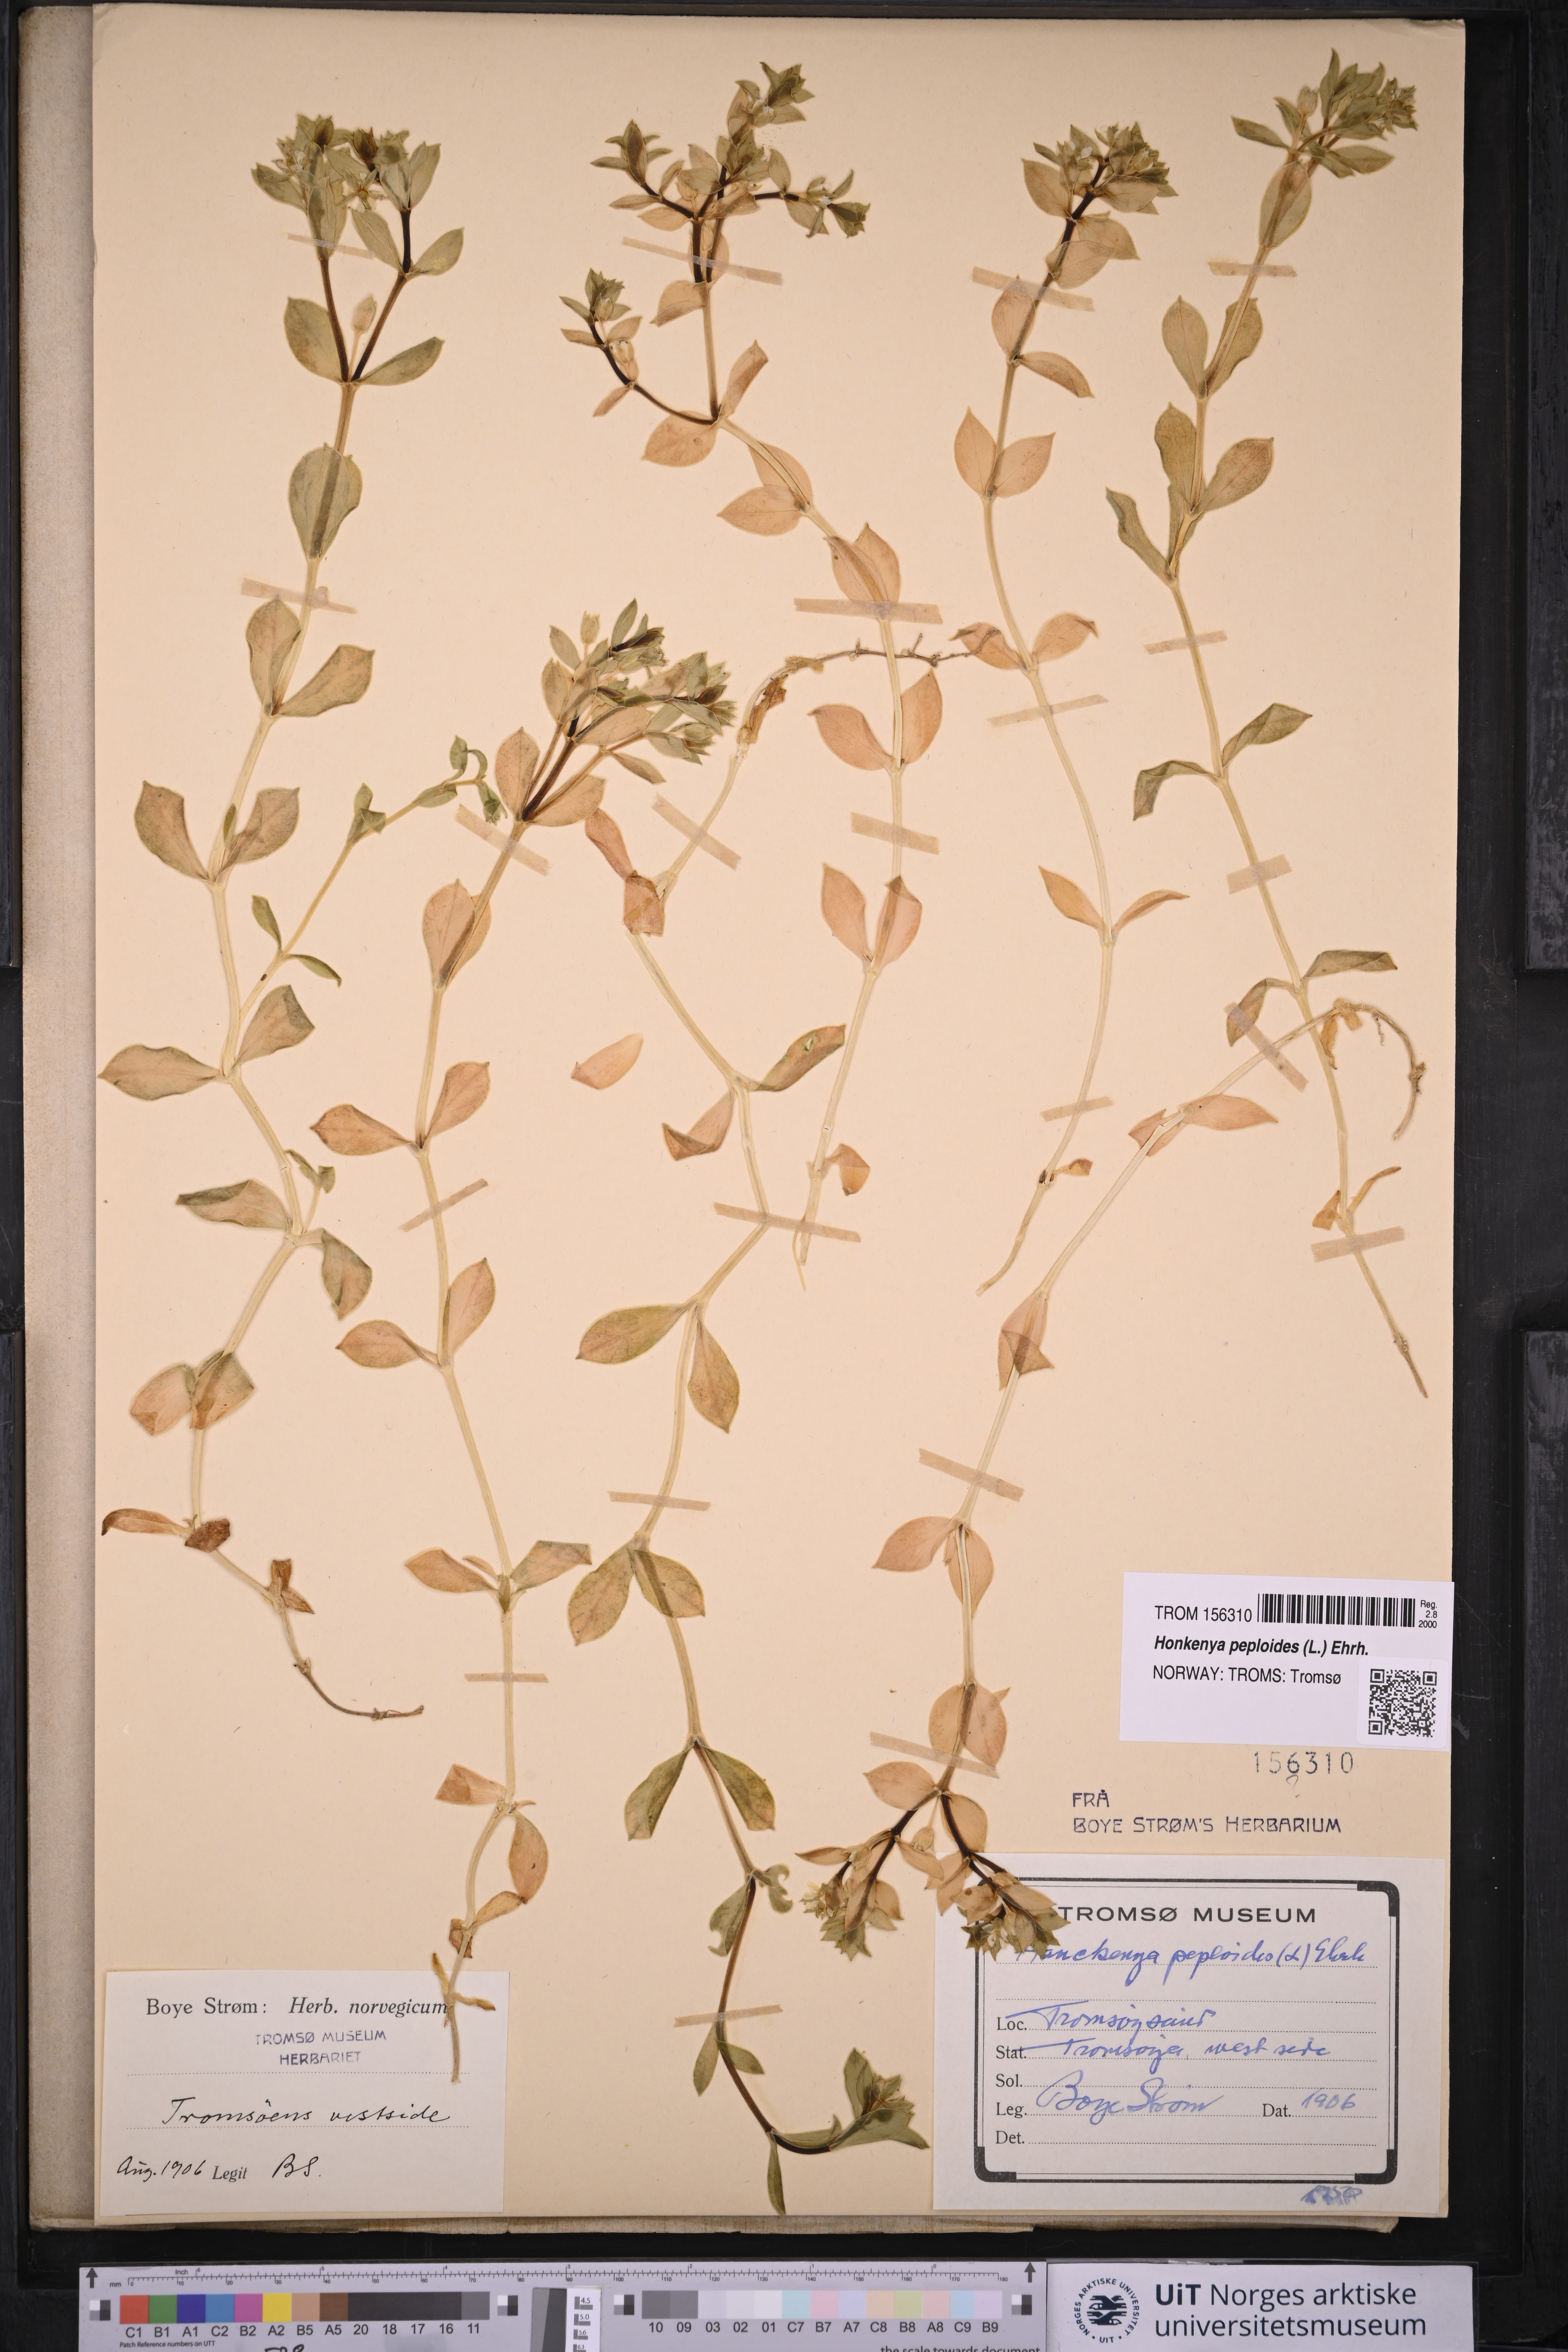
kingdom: Plantae
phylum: Tracheophyta
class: Magnoliopsida
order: Caryophyllales
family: Caryophyllaceae
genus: Honckenya
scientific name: Honckenya peploides
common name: Sea sandwort
